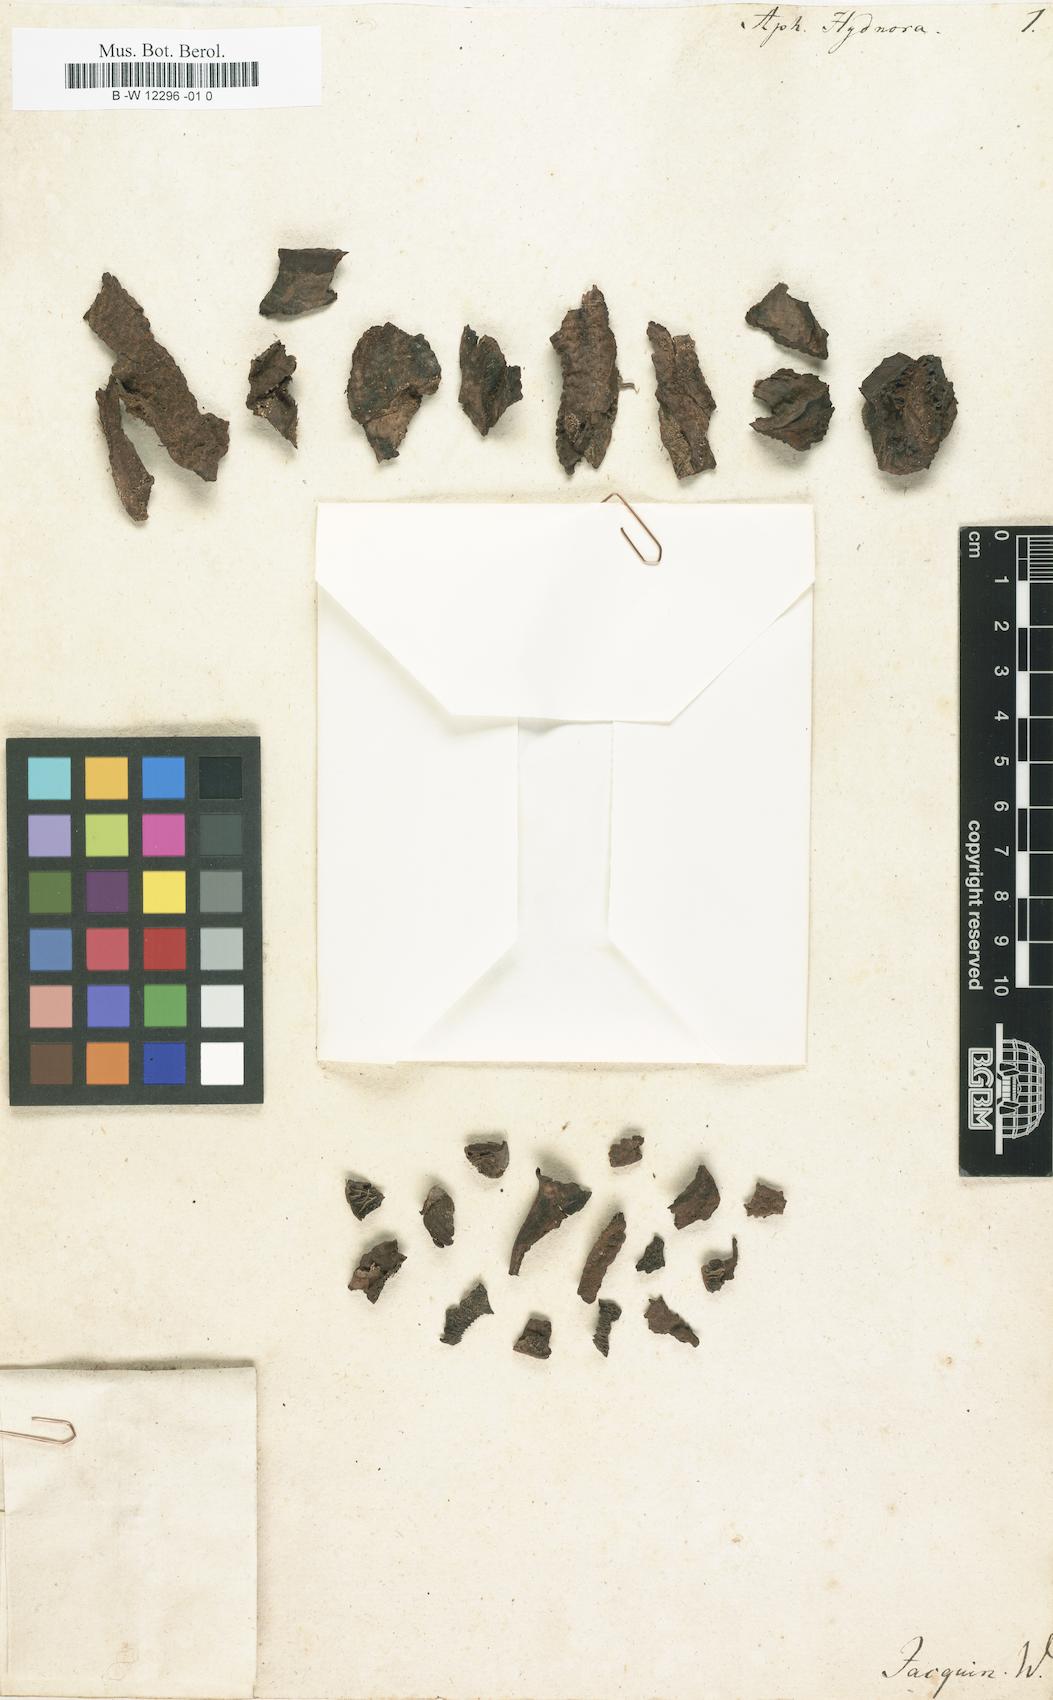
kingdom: Plantae
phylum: Tracheophyta
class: Magnoliopsida
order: Piperales
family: Hydnoraceae
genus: Aphyteia
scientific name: Aphyteia hydnora
